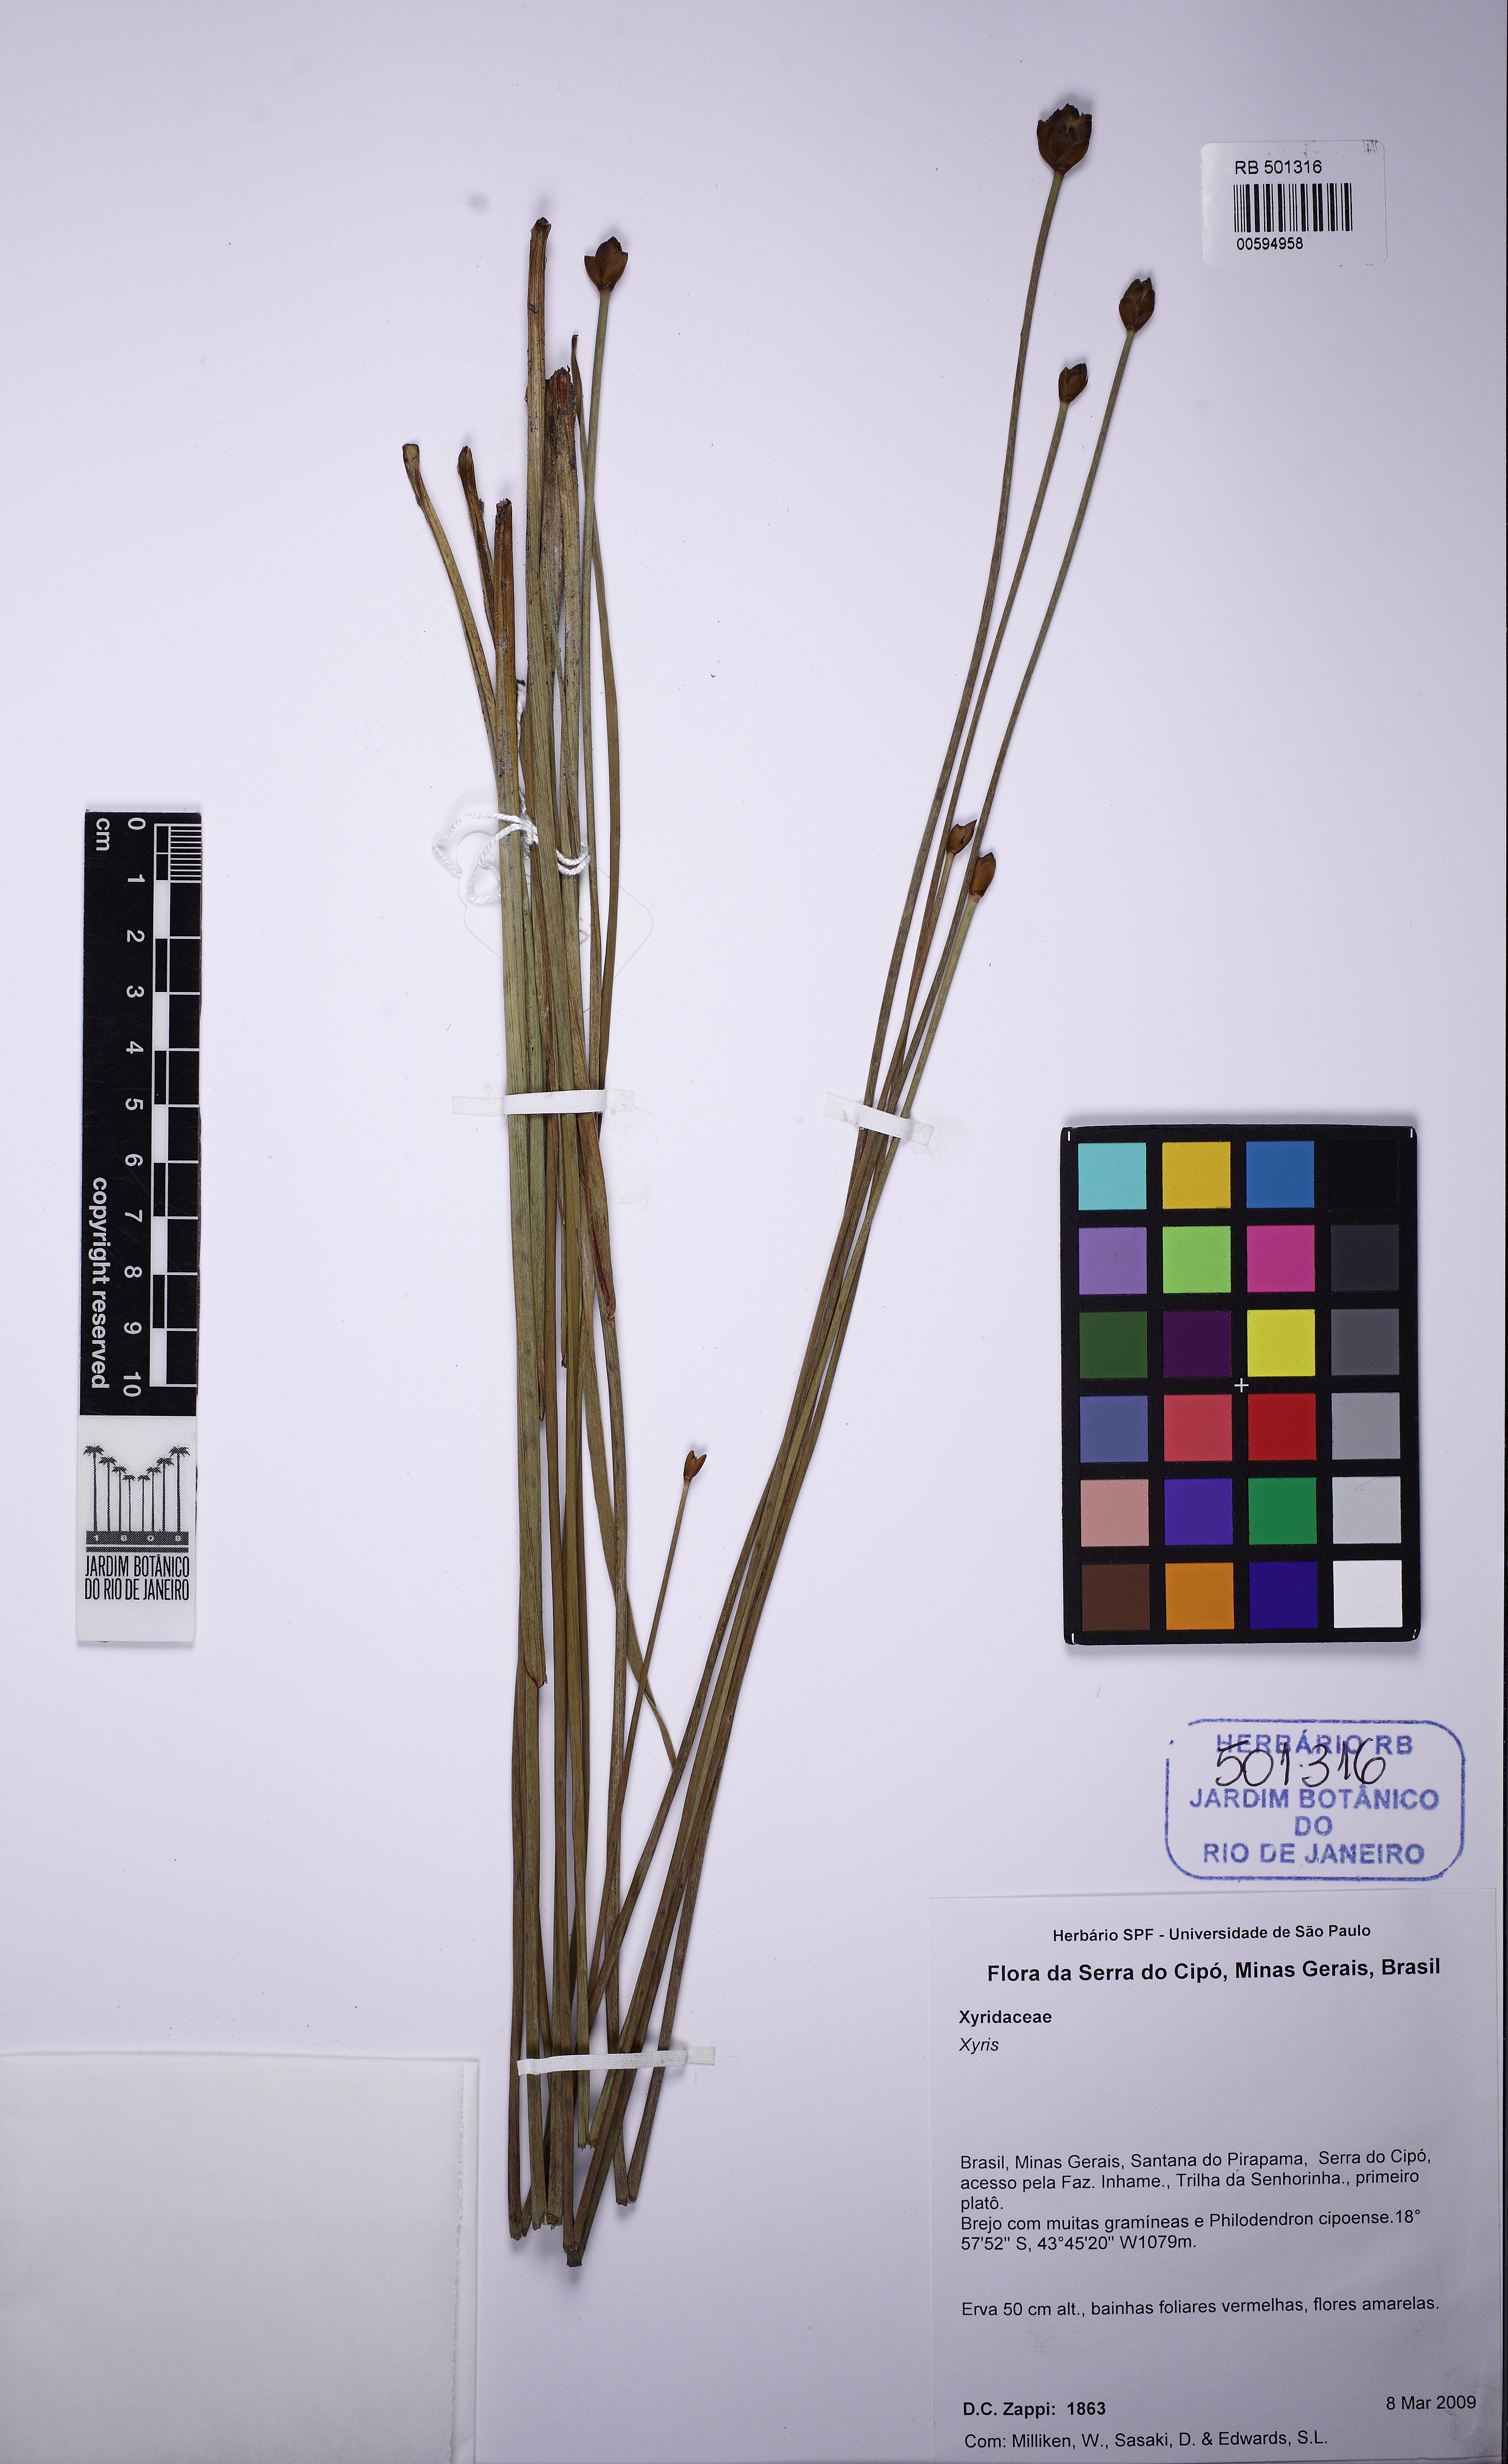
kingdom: Plantae
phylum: Tracheophyta
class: Liliopsida
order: Poales
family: Xyridaceae
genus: Xyris
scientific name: Xyris asperula
